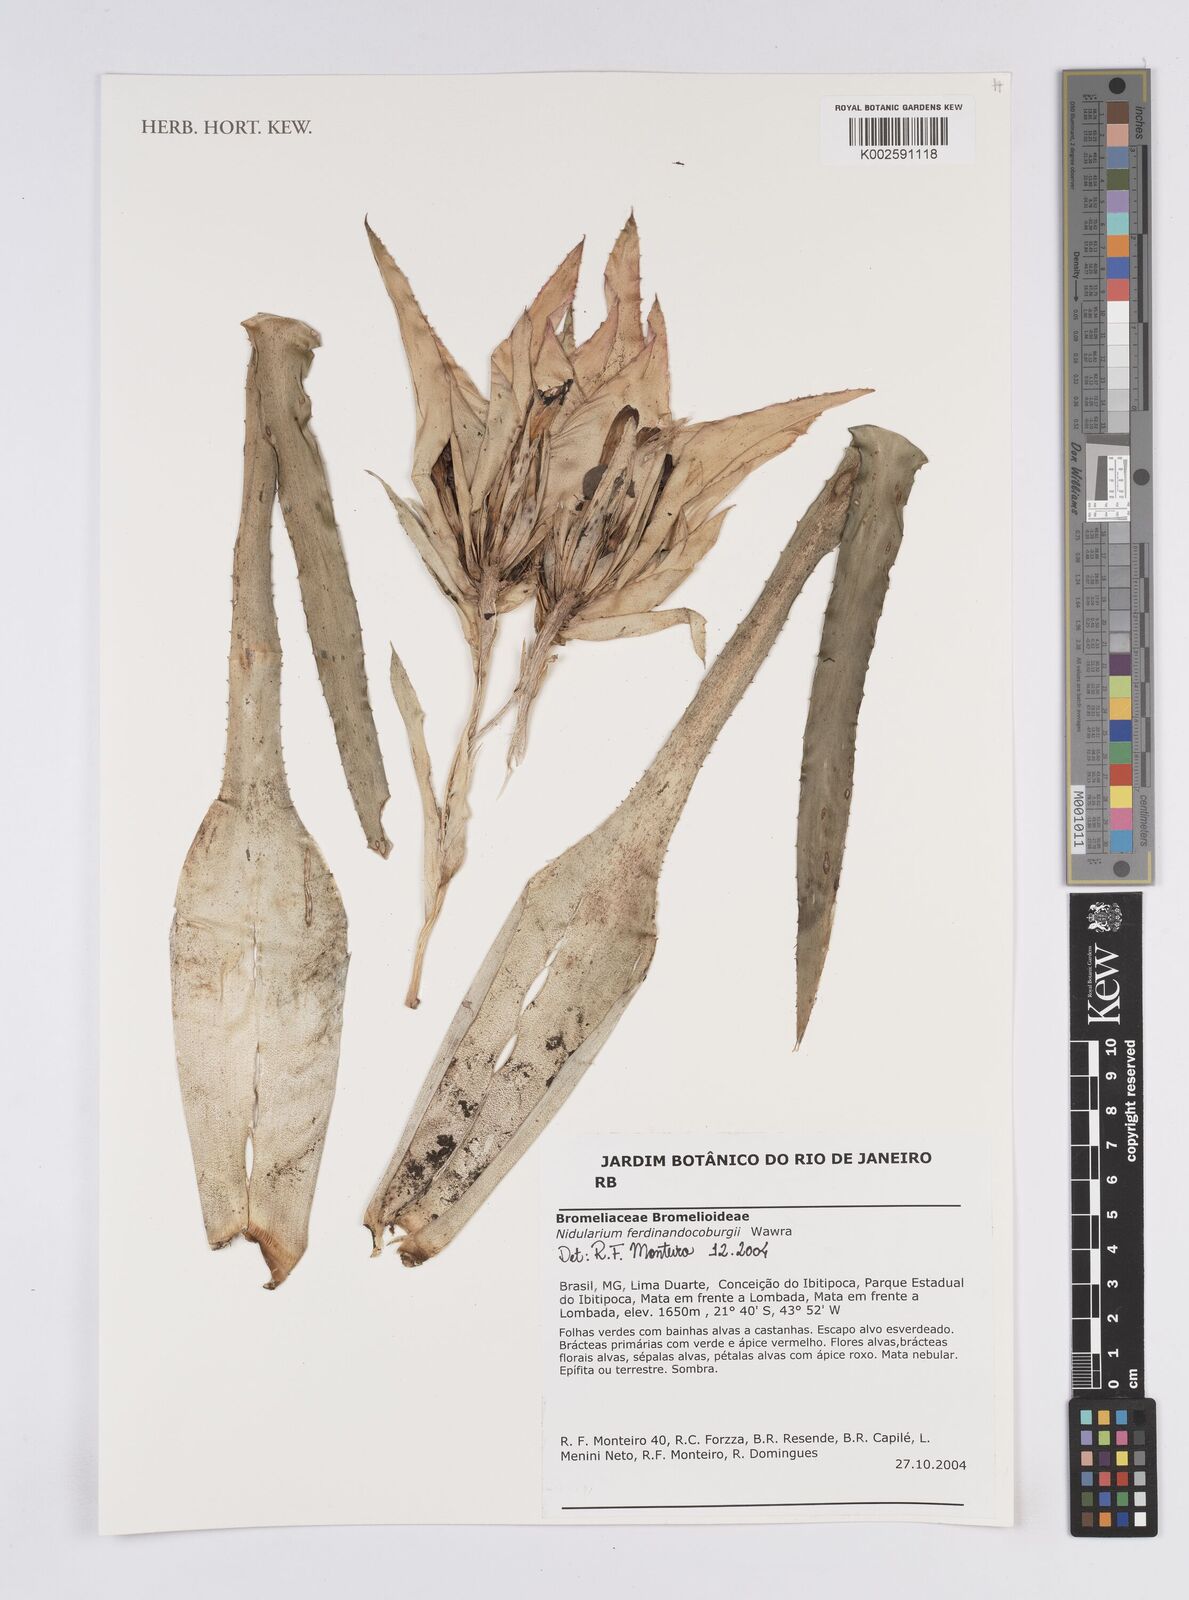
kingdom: Plantae
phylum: Tracheophyta
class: Liliopsida
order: Poales
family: Bromeliaceae
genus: Nidularium
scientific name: Nidularium ferdinando-coburgii
